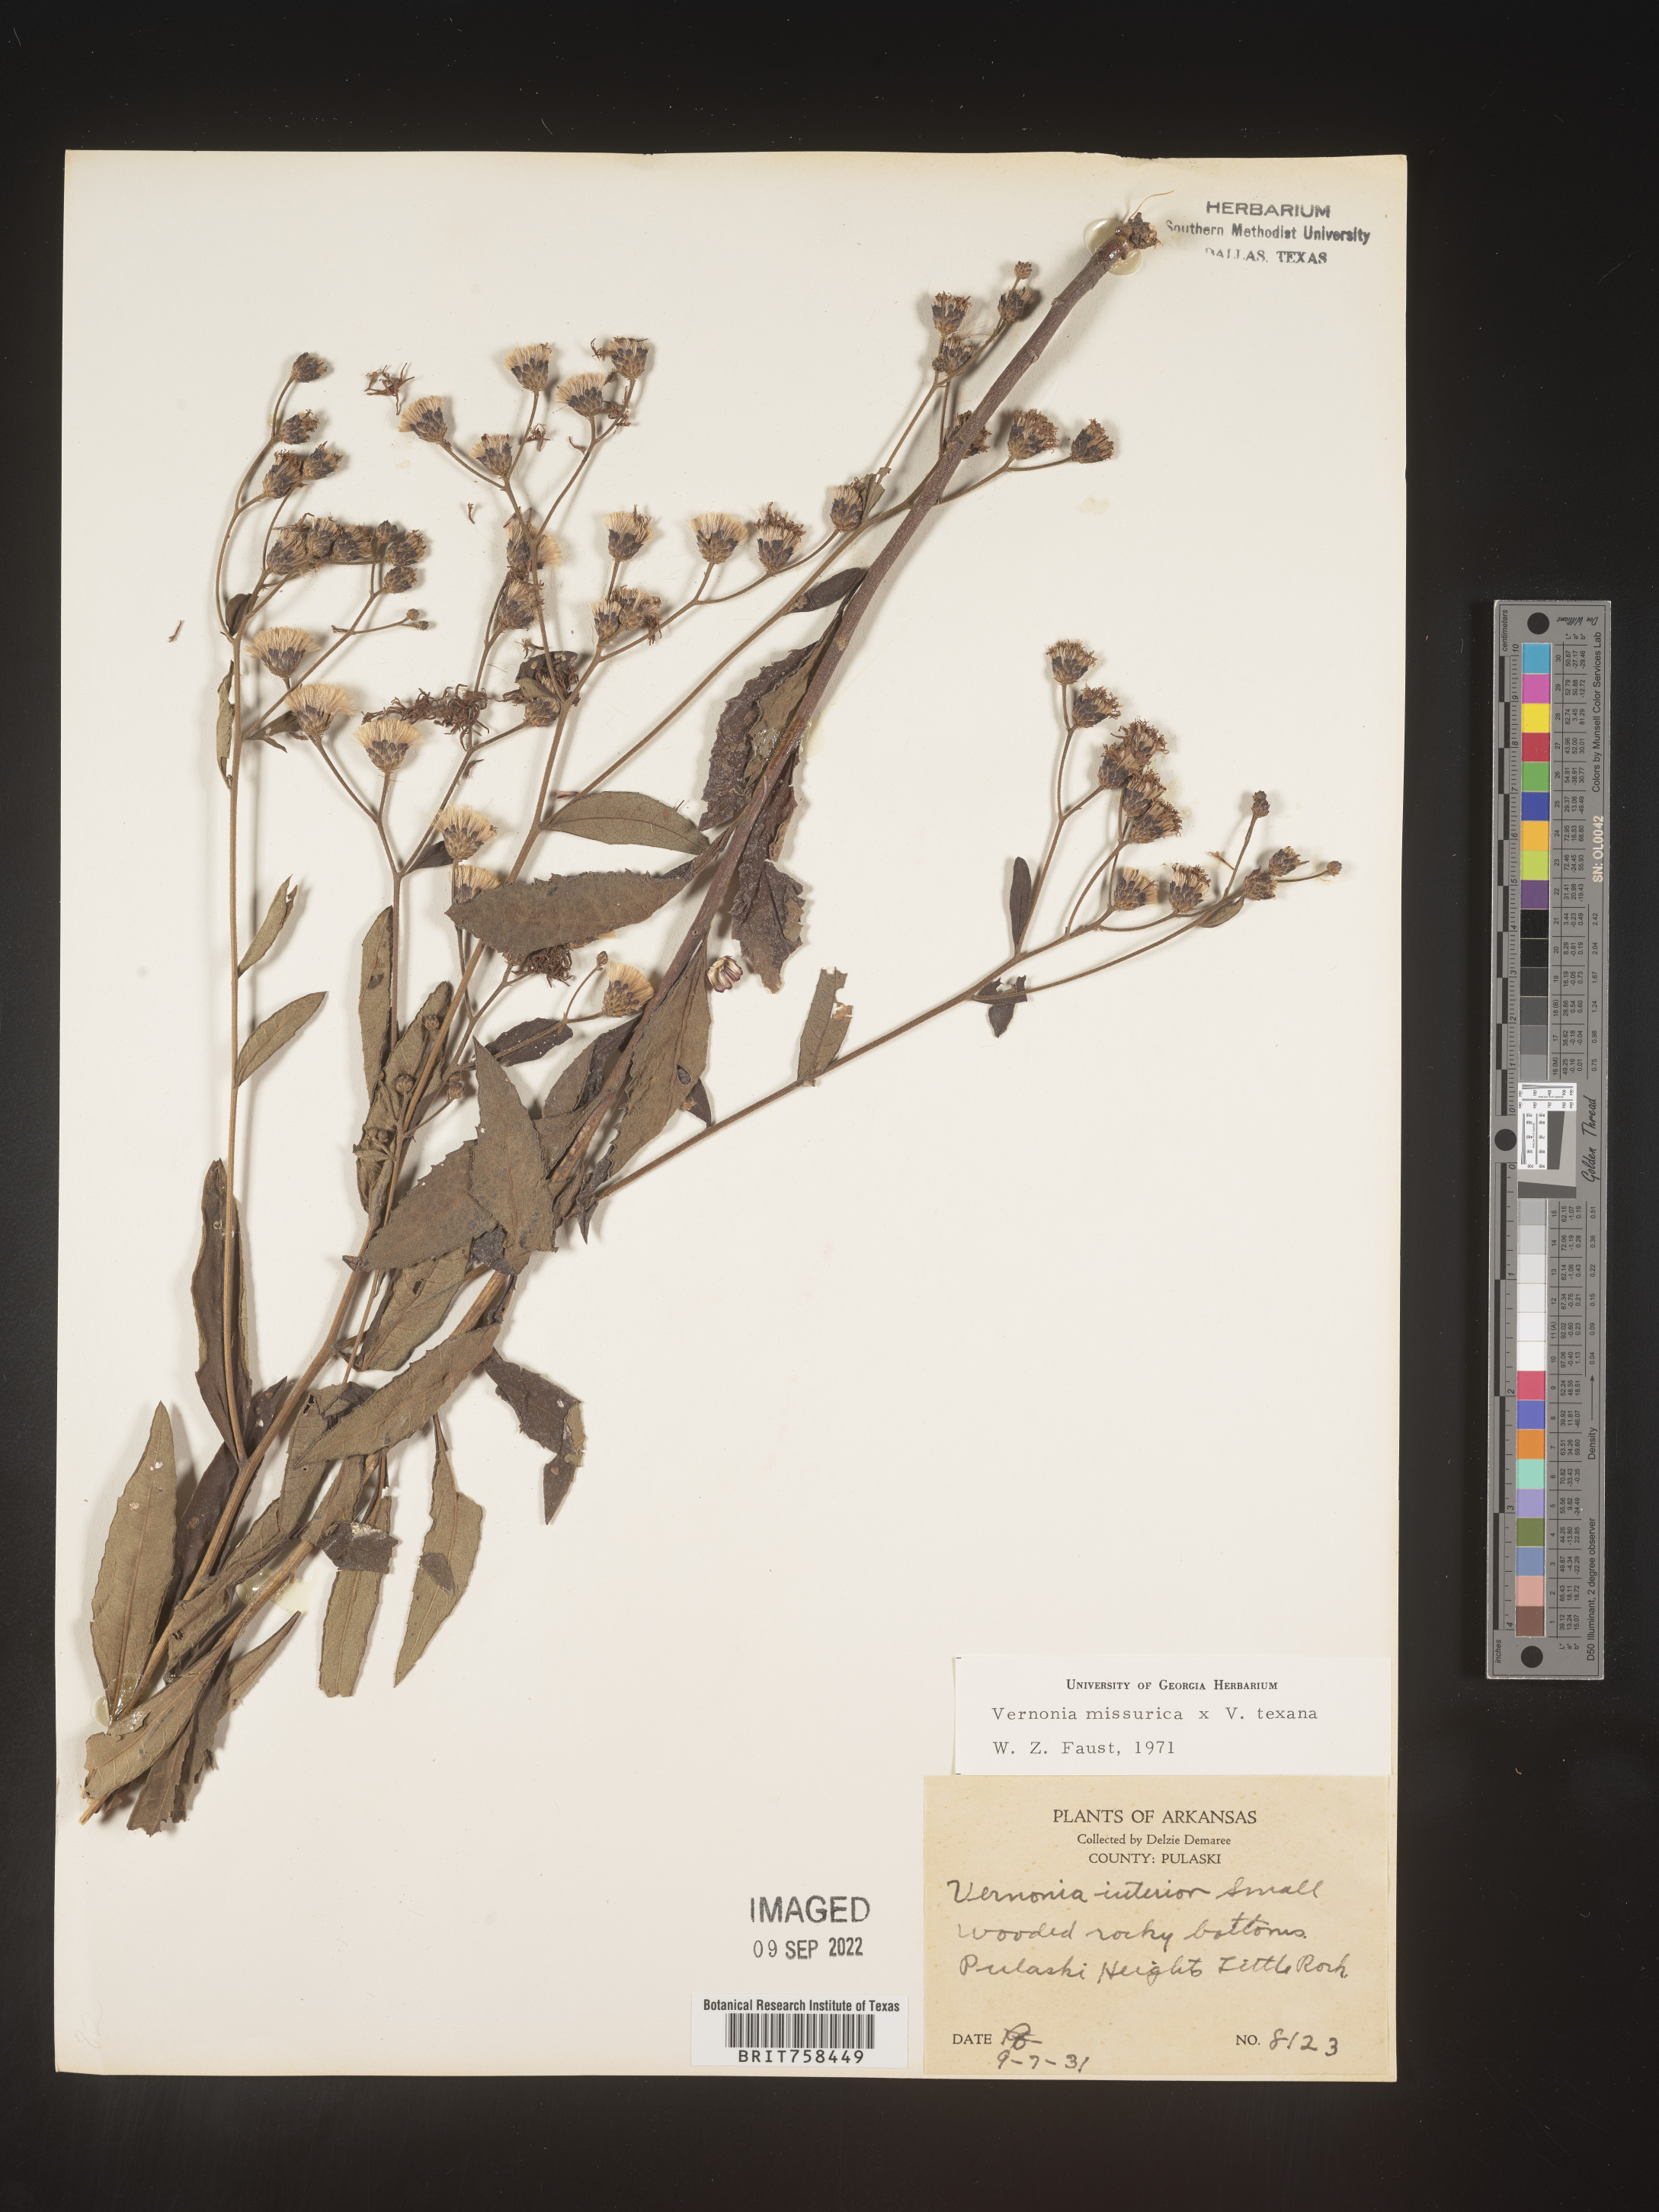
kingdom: Plantae
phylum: Tracheophyta
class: Magnoliopsida
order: Asterales
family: Asteraceae
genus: Vernonia
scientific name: Vernonia missurica
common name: Missouri ironweed
